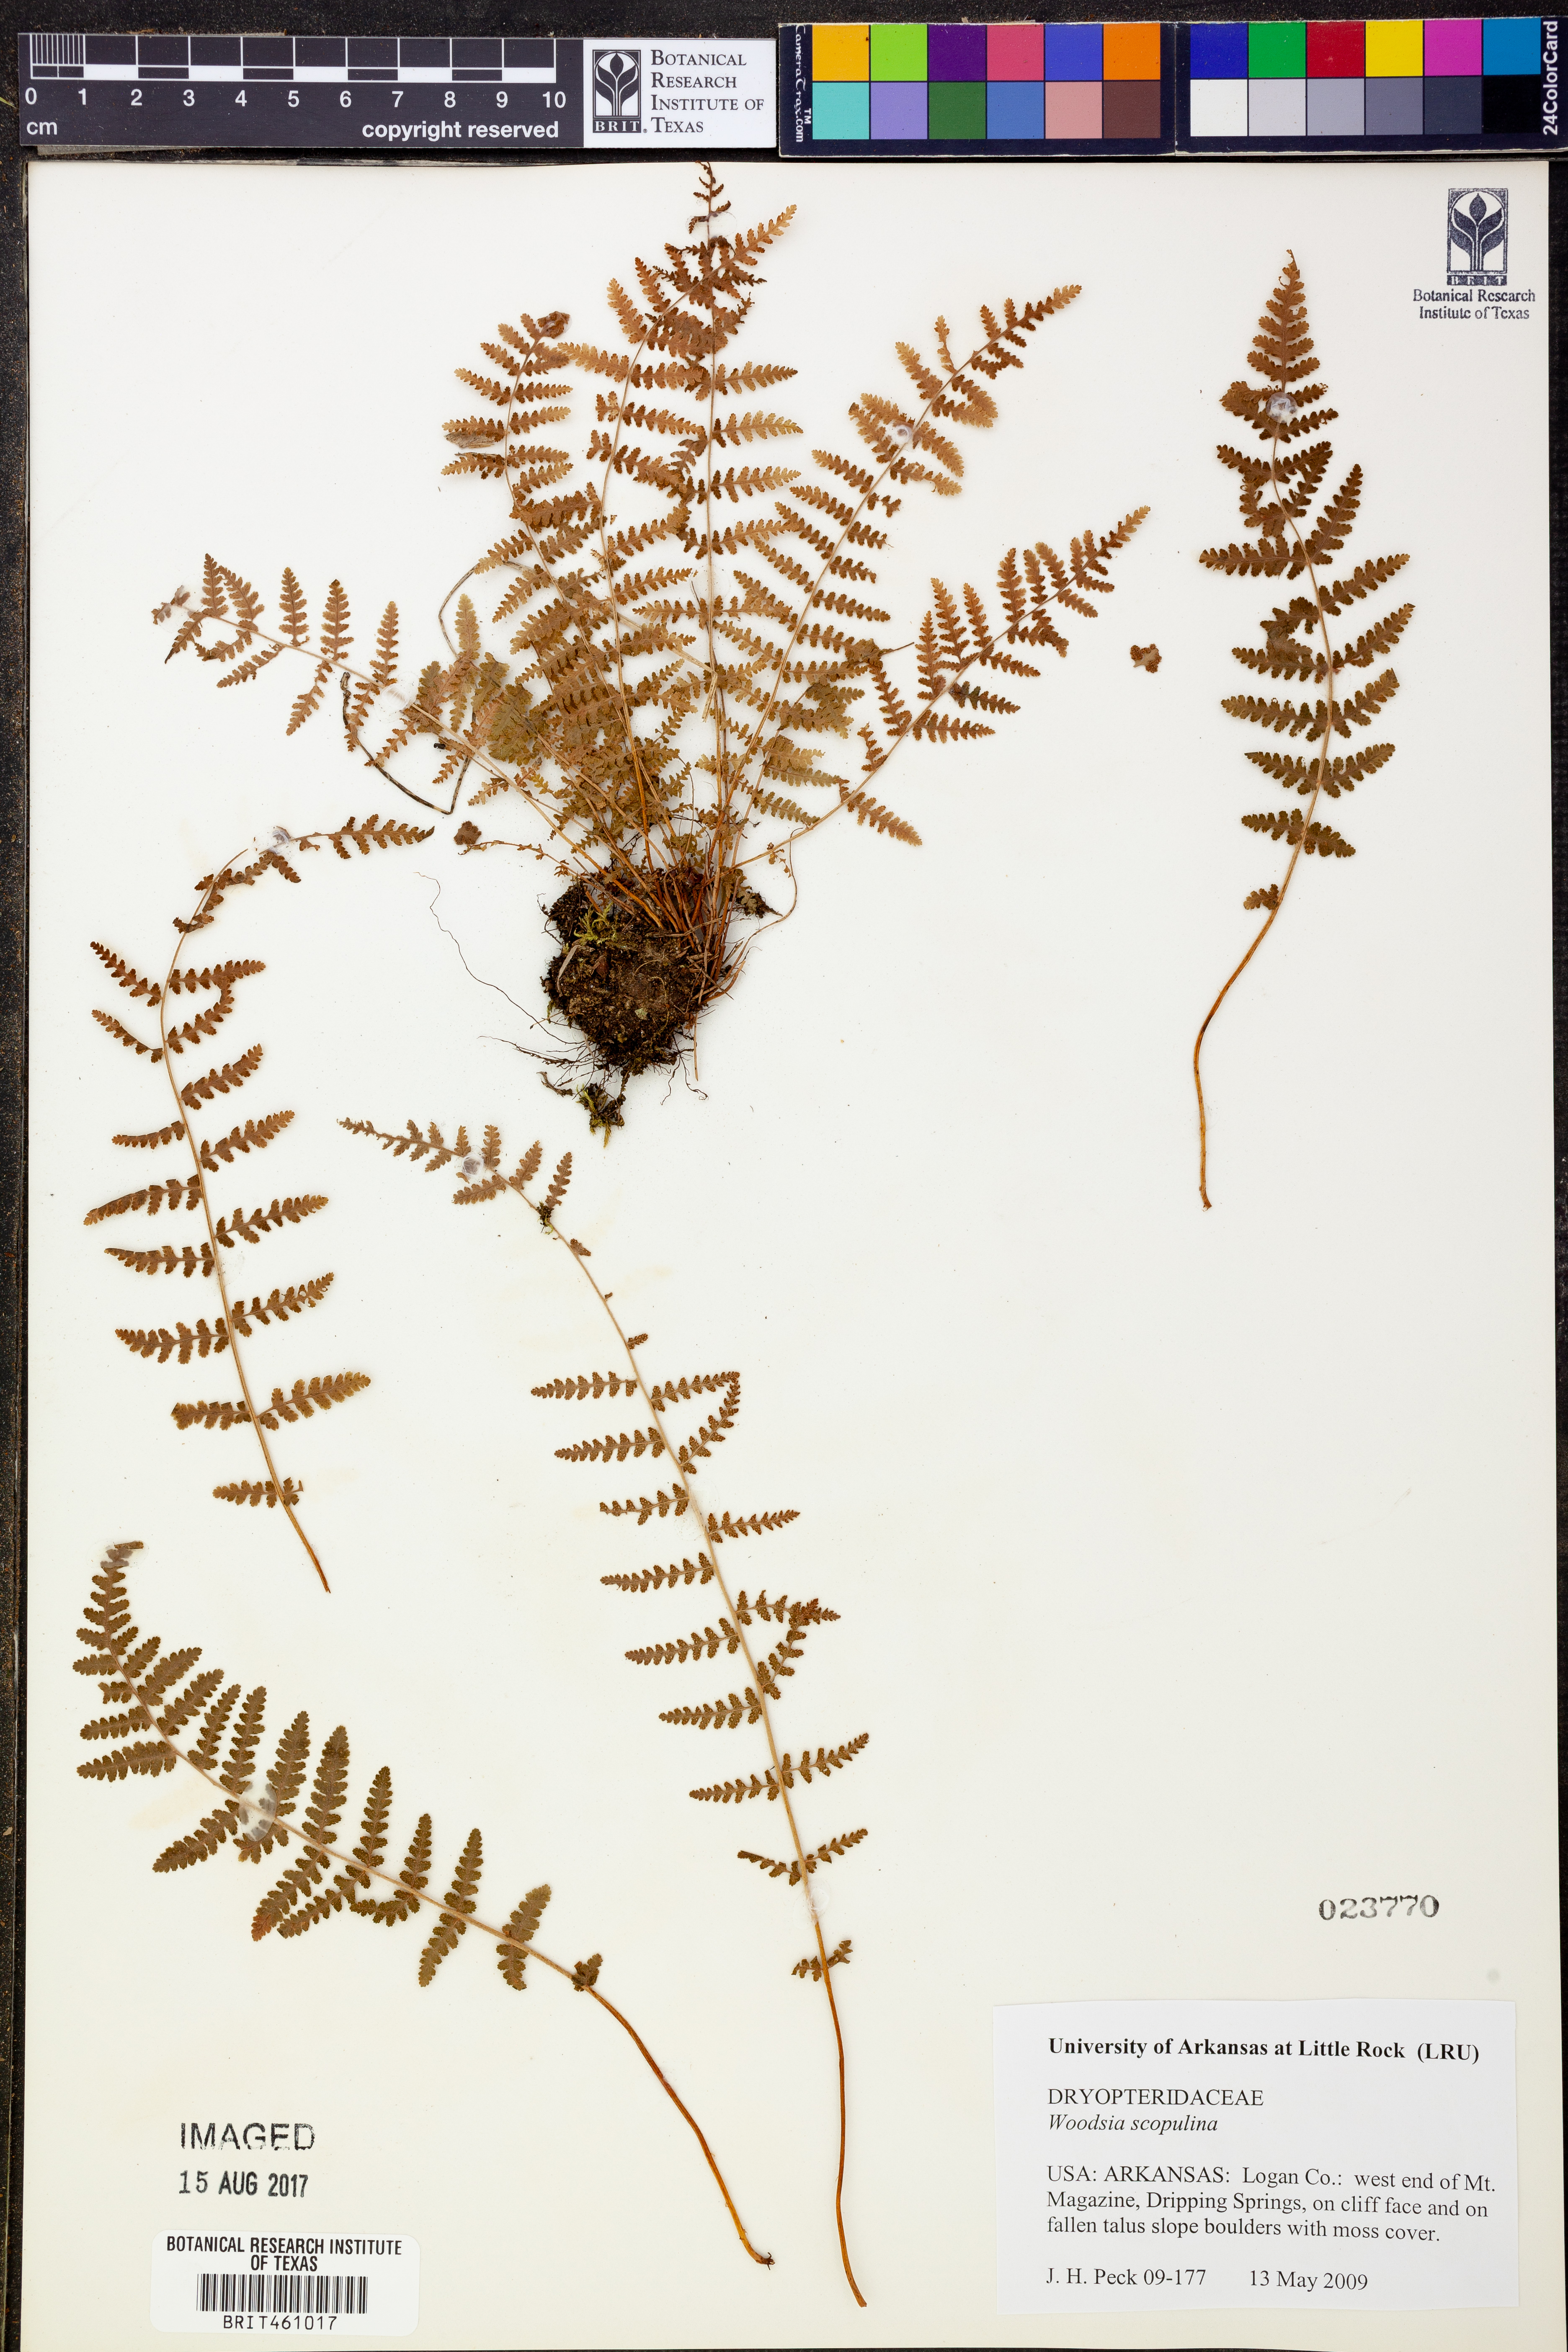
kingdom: Plantae
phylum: Tracheophyta
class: Polypodiopsida
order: Polypodiales
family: Woodsiaceae
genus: Physematium
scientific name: Physematium scopulinum
